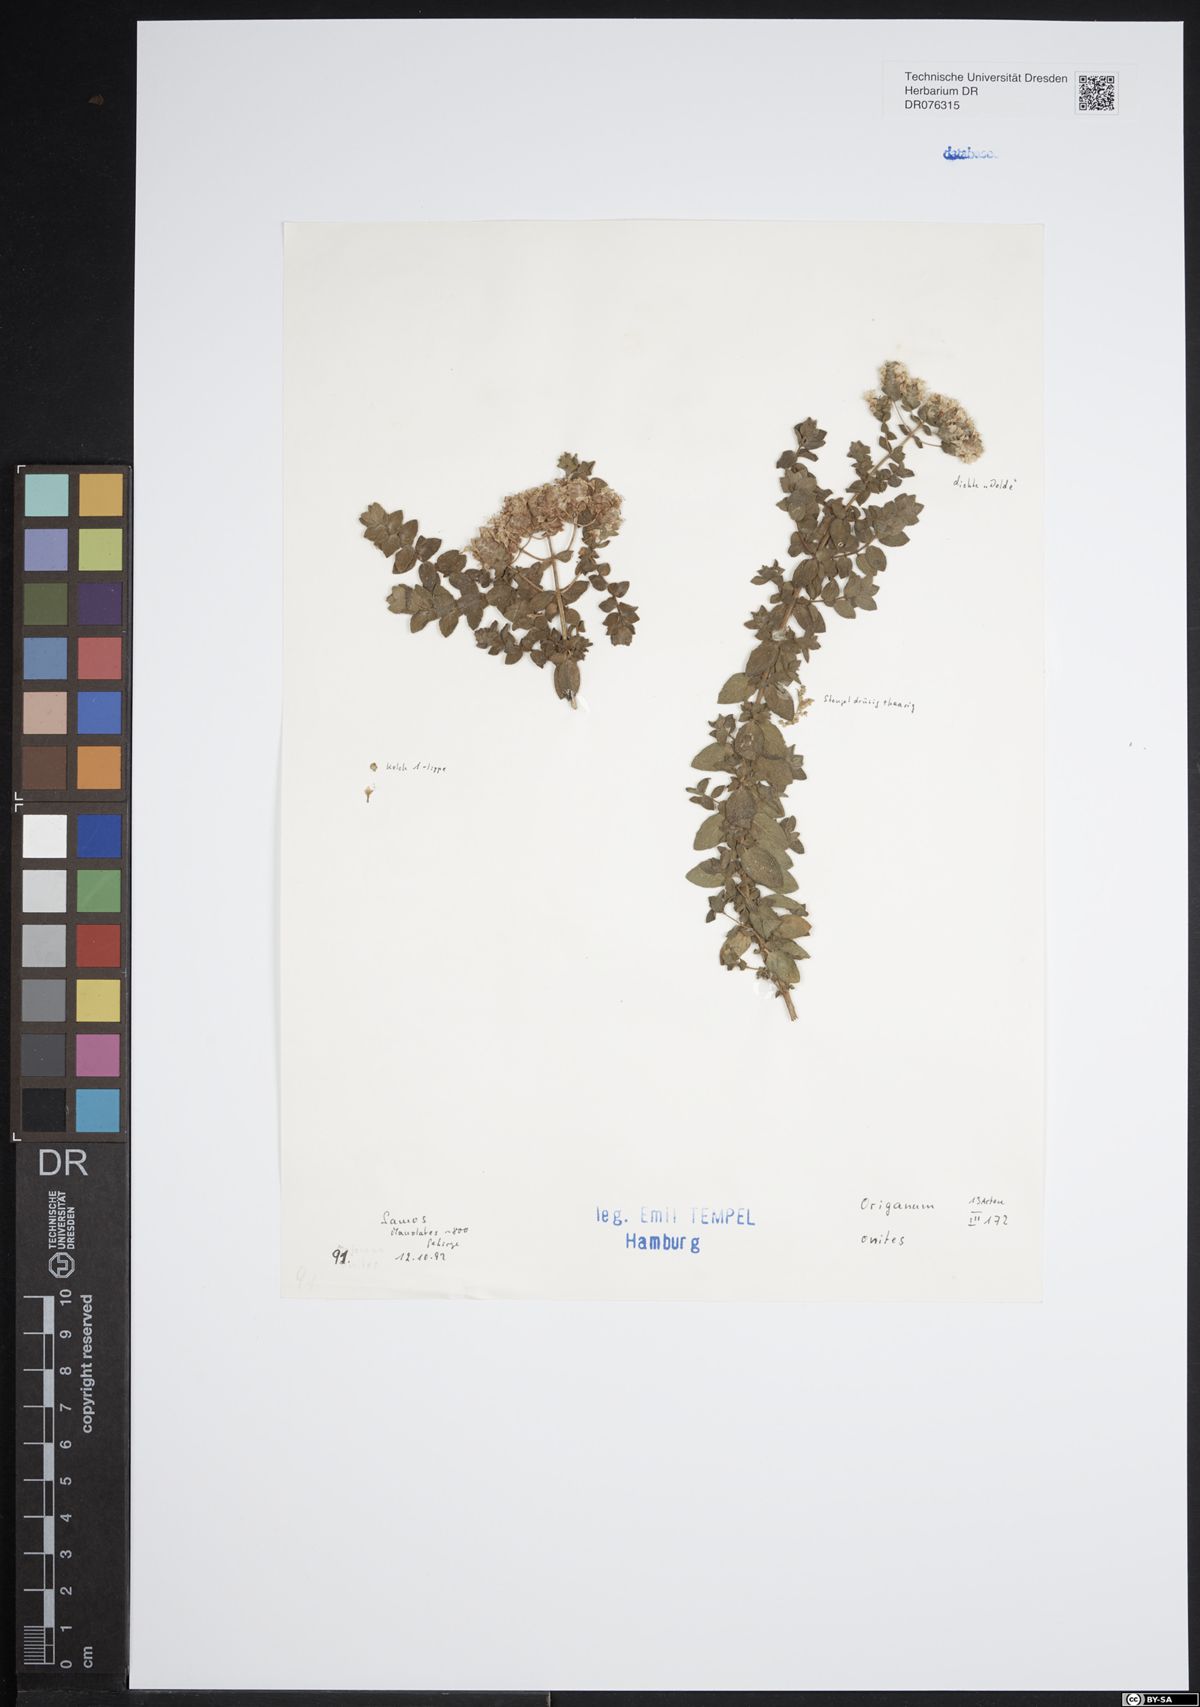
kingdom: Plantae
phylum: Tracheophyta
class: Magnoliopsida
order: Lamiales
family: Lamiaceae
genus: Origanum
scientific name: Origanum onites
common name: Turkish oregano
